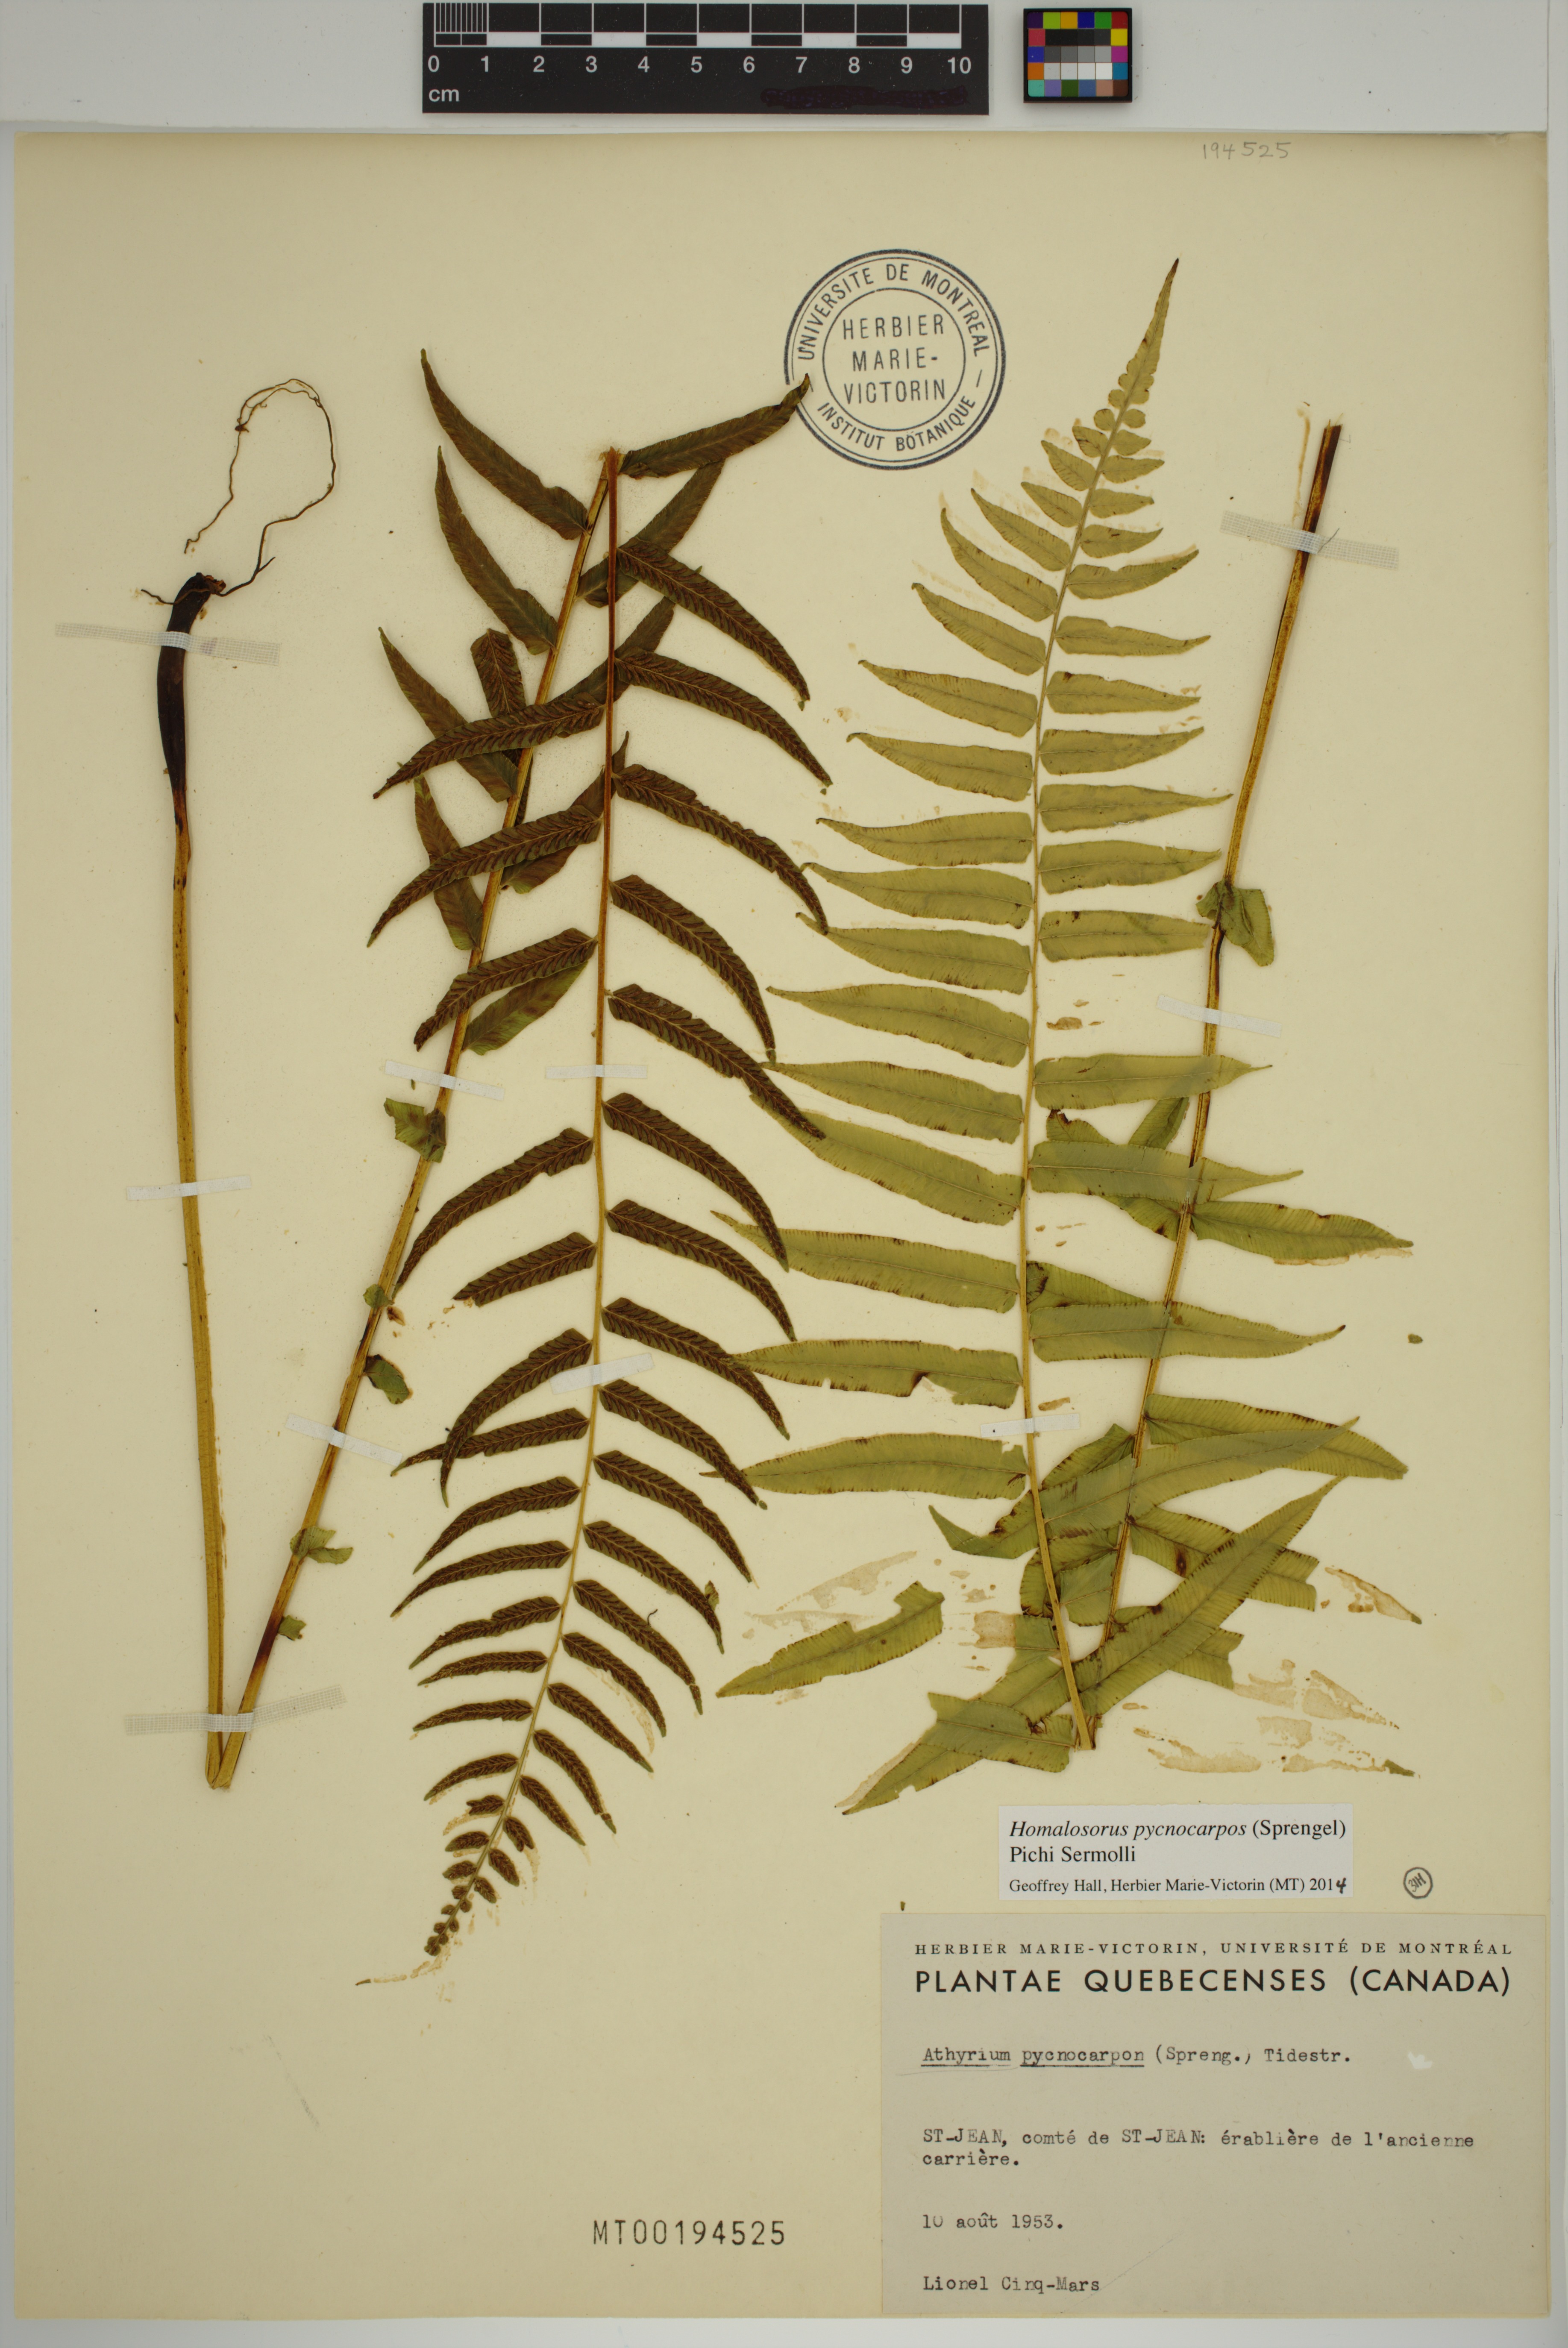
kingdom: Plantae
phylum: Tracheophyta
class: Polypodiopsida
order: Polypodiales
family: Diplaziopsidaceae
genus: Homalosorus
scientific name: Homalosorus pycnocarpos
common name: Glade fern
